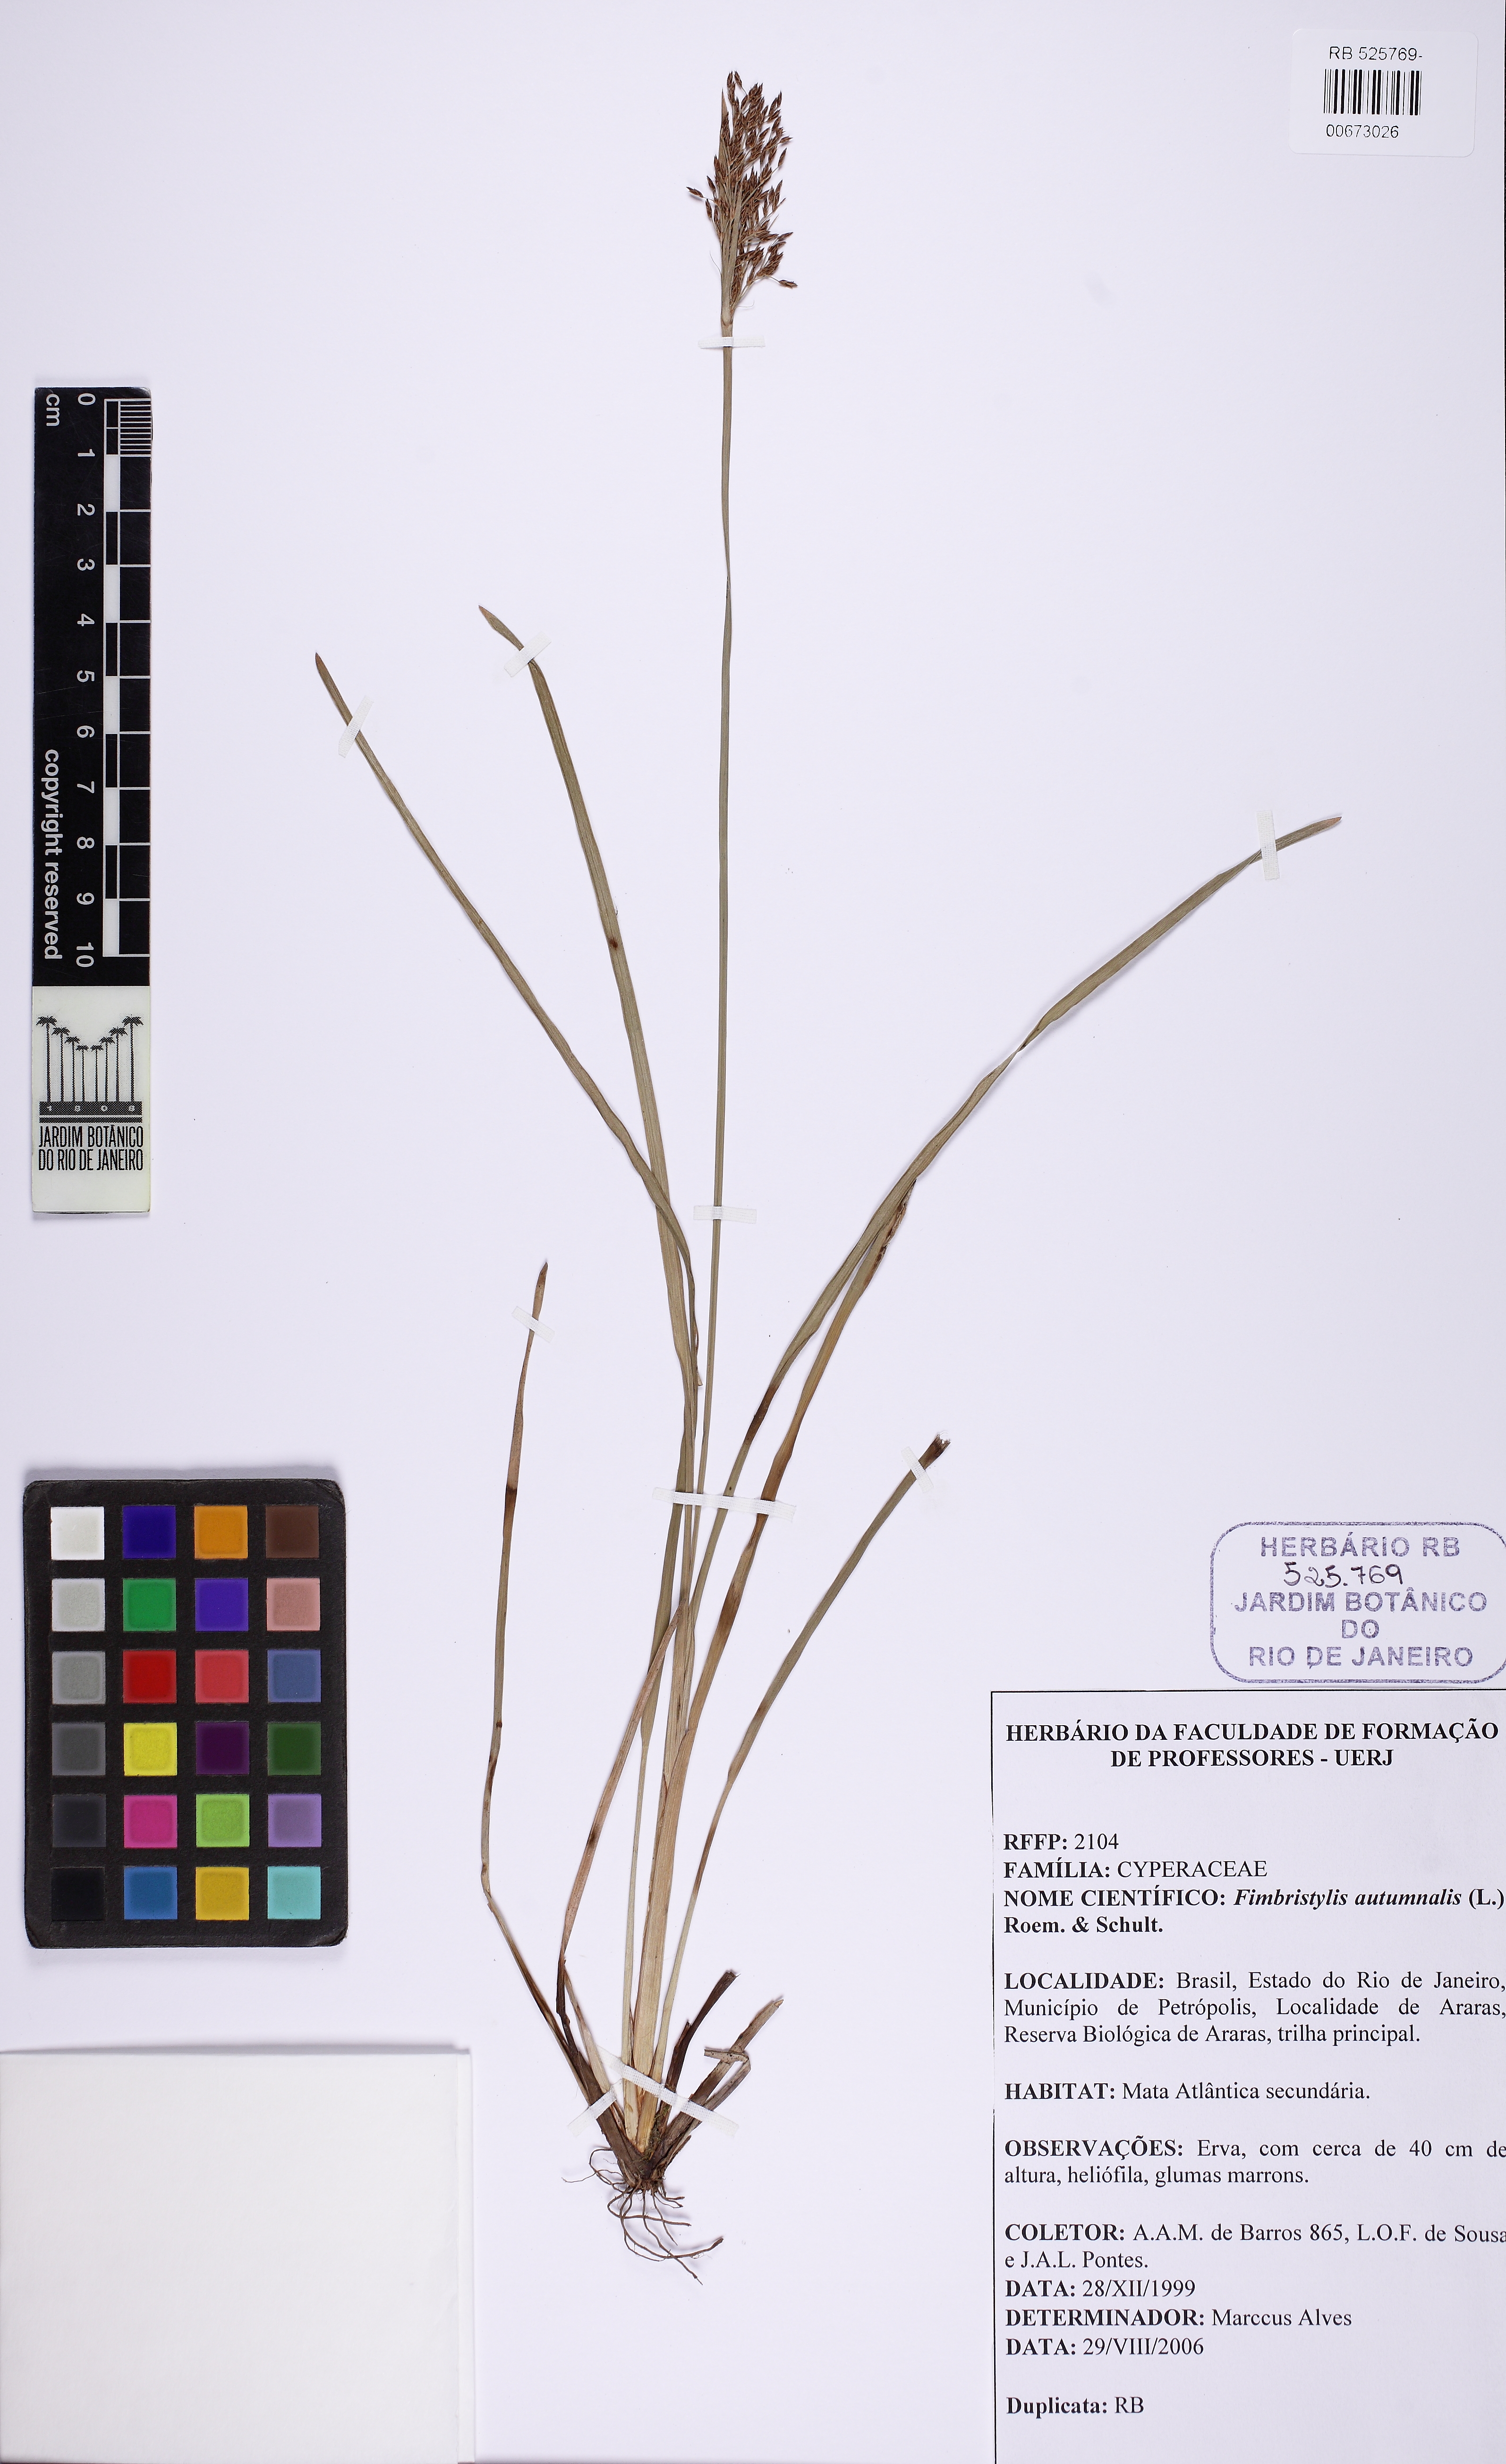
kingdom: Plantae
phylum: Tracheophyta
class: Liliopsida
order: Poales
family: Cyperaceae
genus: Fimbristylis
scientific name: Fimbristylis autumnalis
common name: Slender fimbristylis
